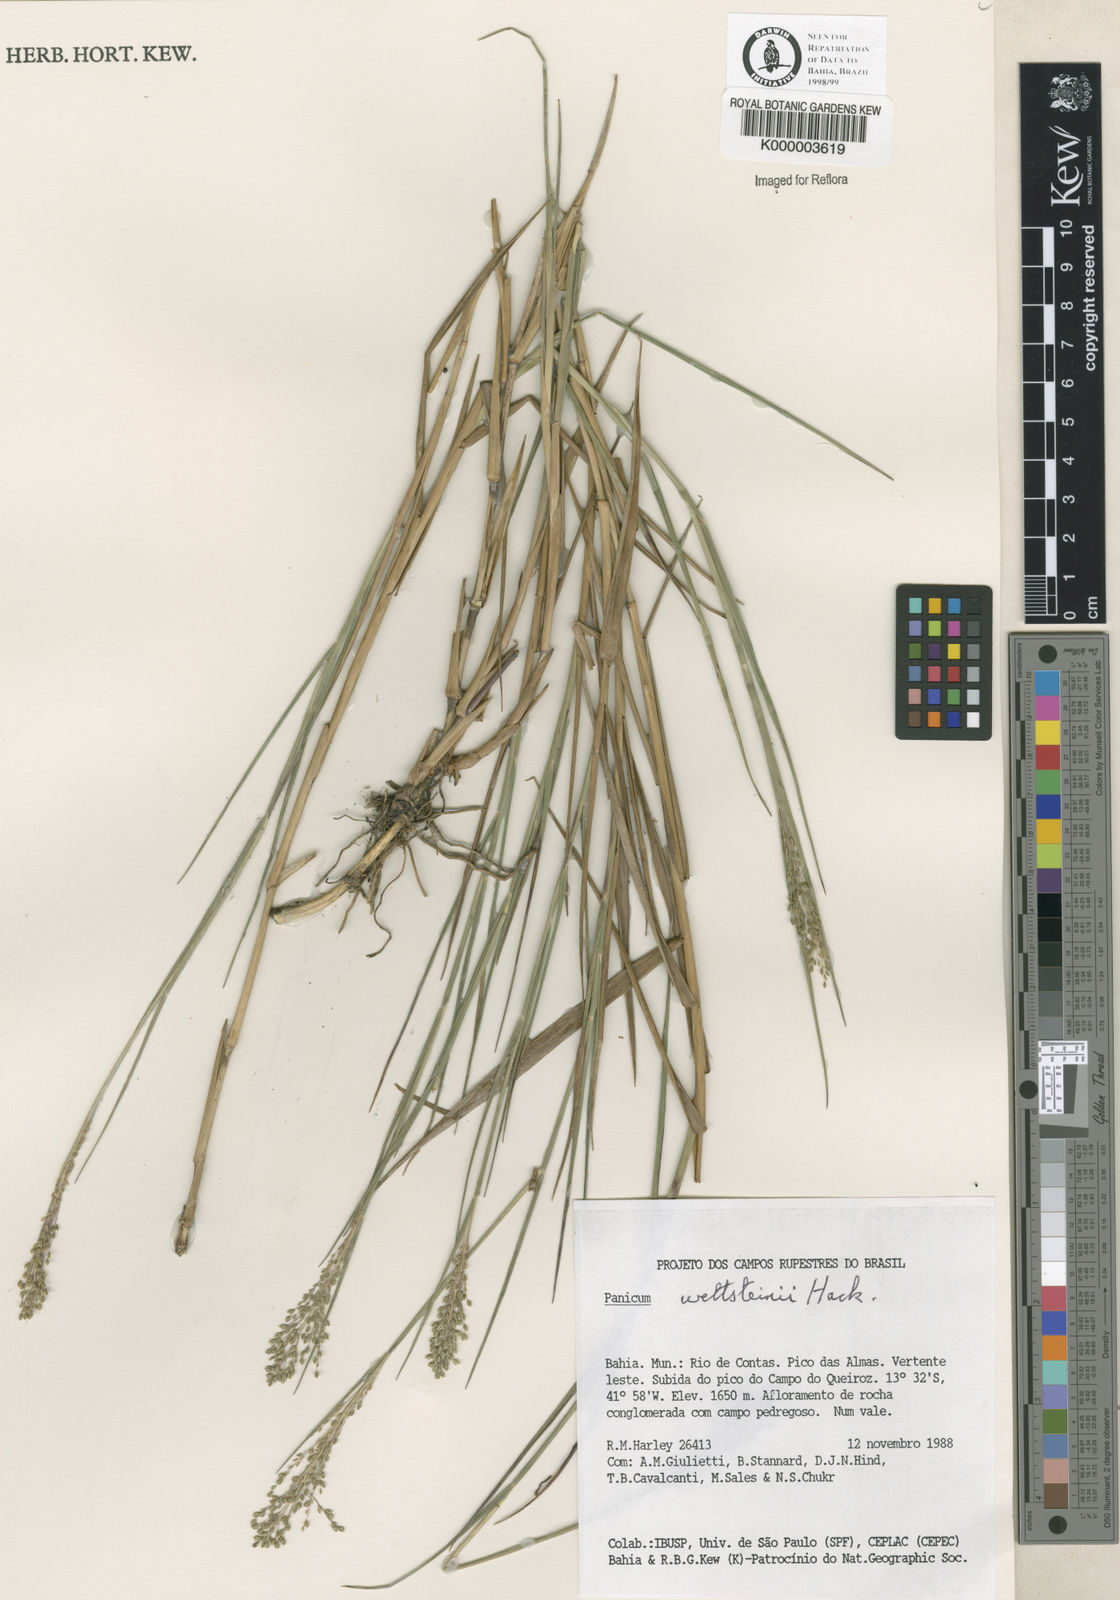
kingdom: Plantae
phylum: Tracheophyta
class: Liliopsida
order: Poales
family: Poaceae
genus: Trichanthecium
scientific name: Trichanthecium wettsteinii
